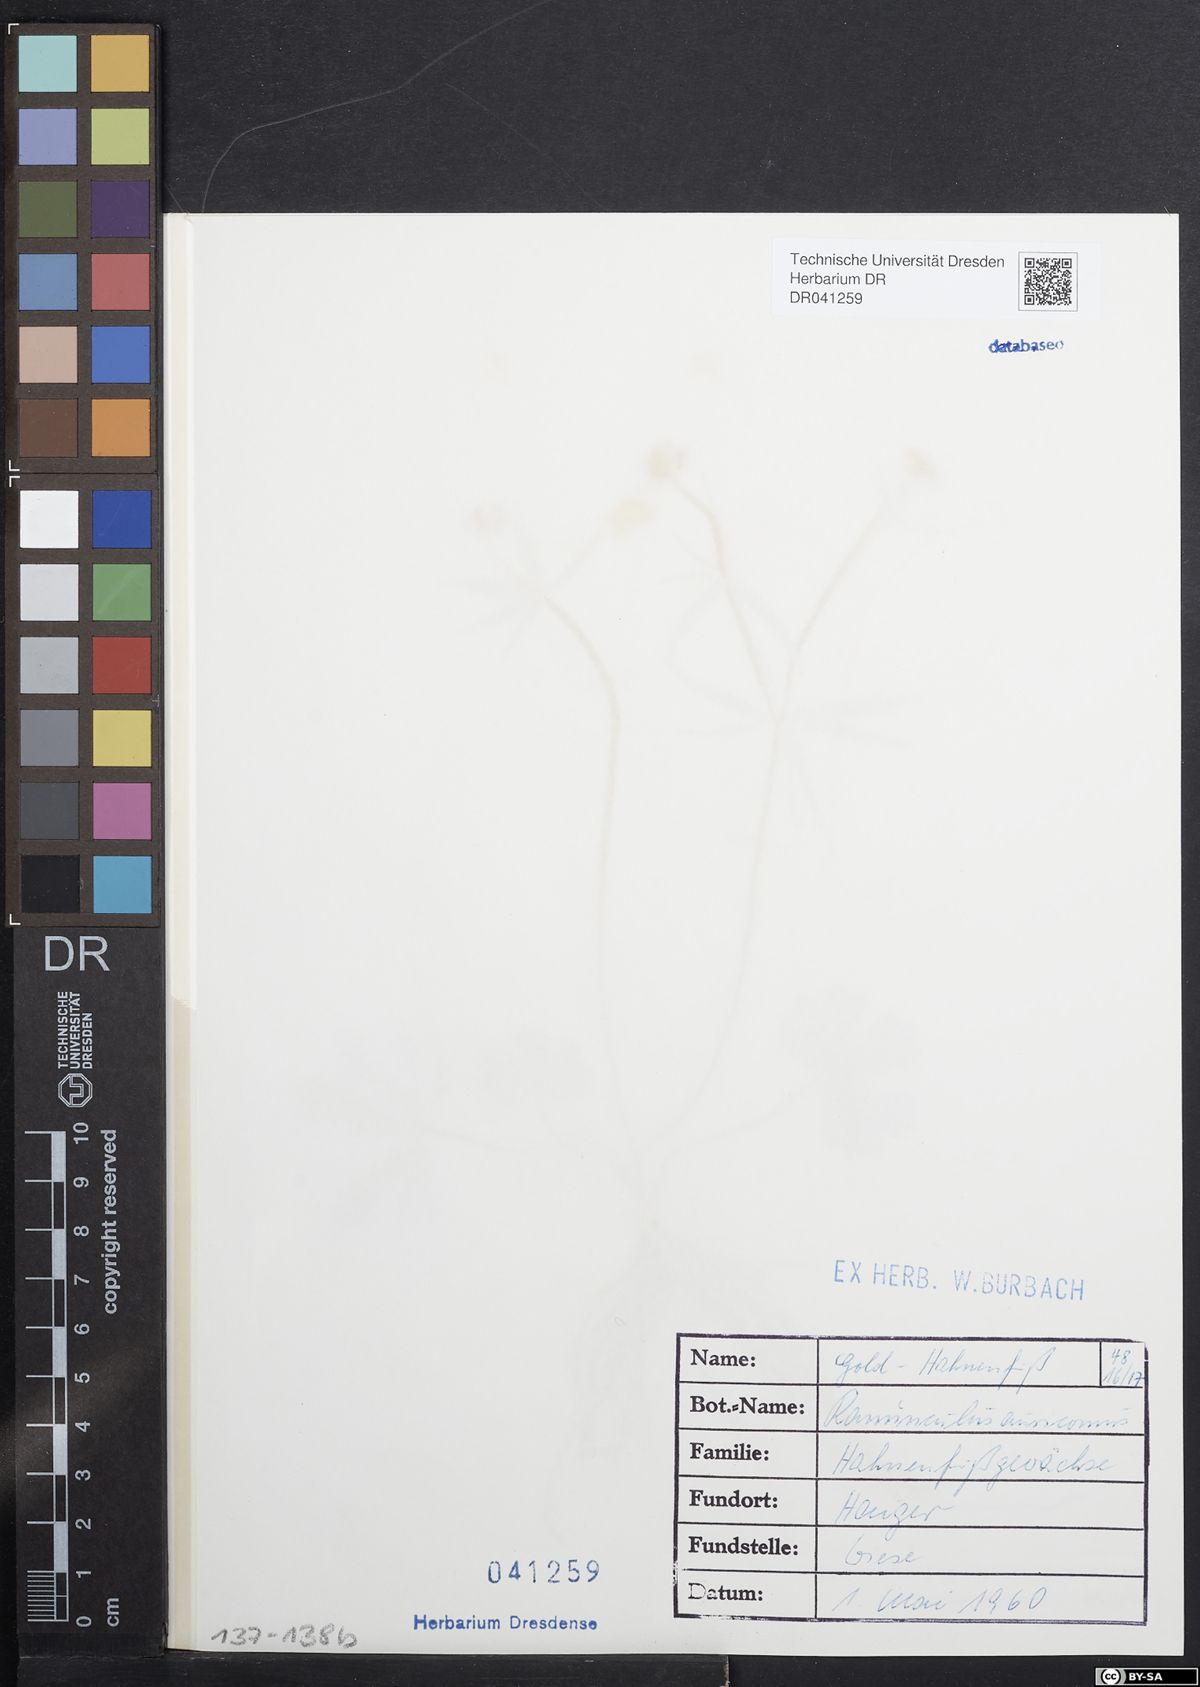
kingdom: Plantae
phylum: Tracheophyta
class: Magnoliopsida
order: Ranunculales
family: Ranunculaceae
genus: Ranunculus
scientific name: Ranunculus pseudovertumnalis
